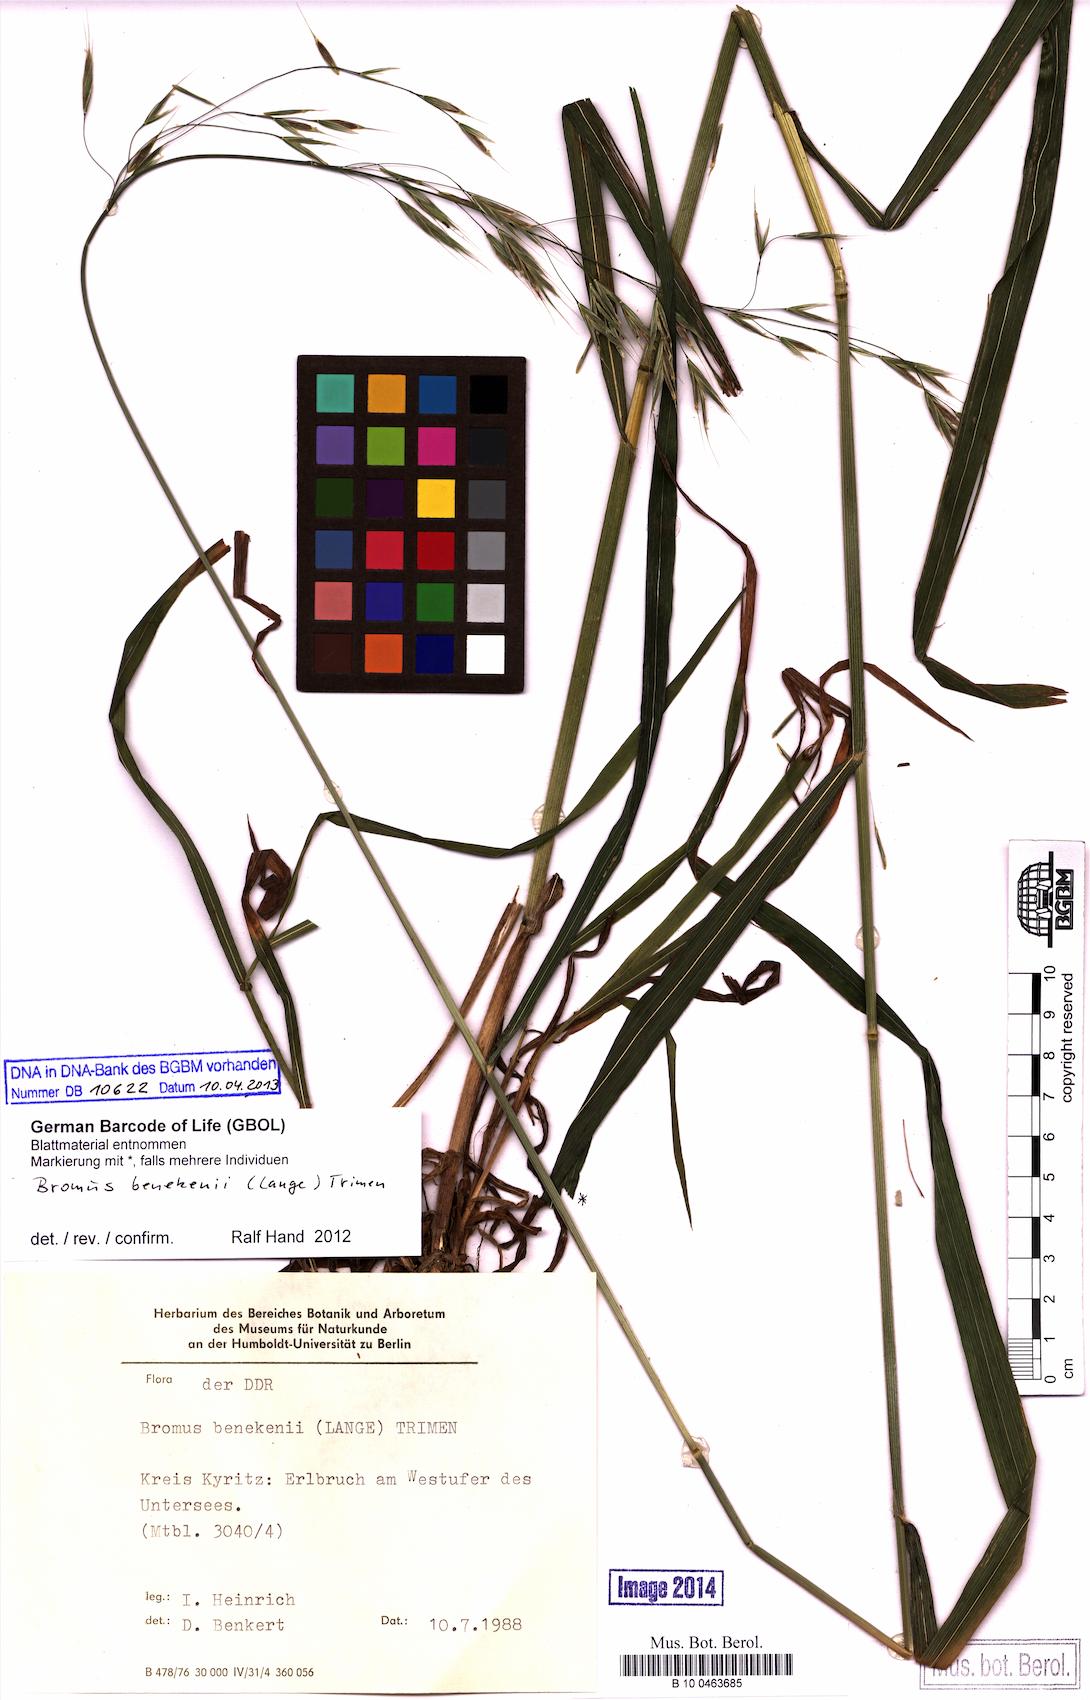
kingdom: Plantae
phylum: Tracheophyta
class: Liliopsida
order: Poales
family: Poaceae
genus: Bromus
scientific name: Bromus benekenii
